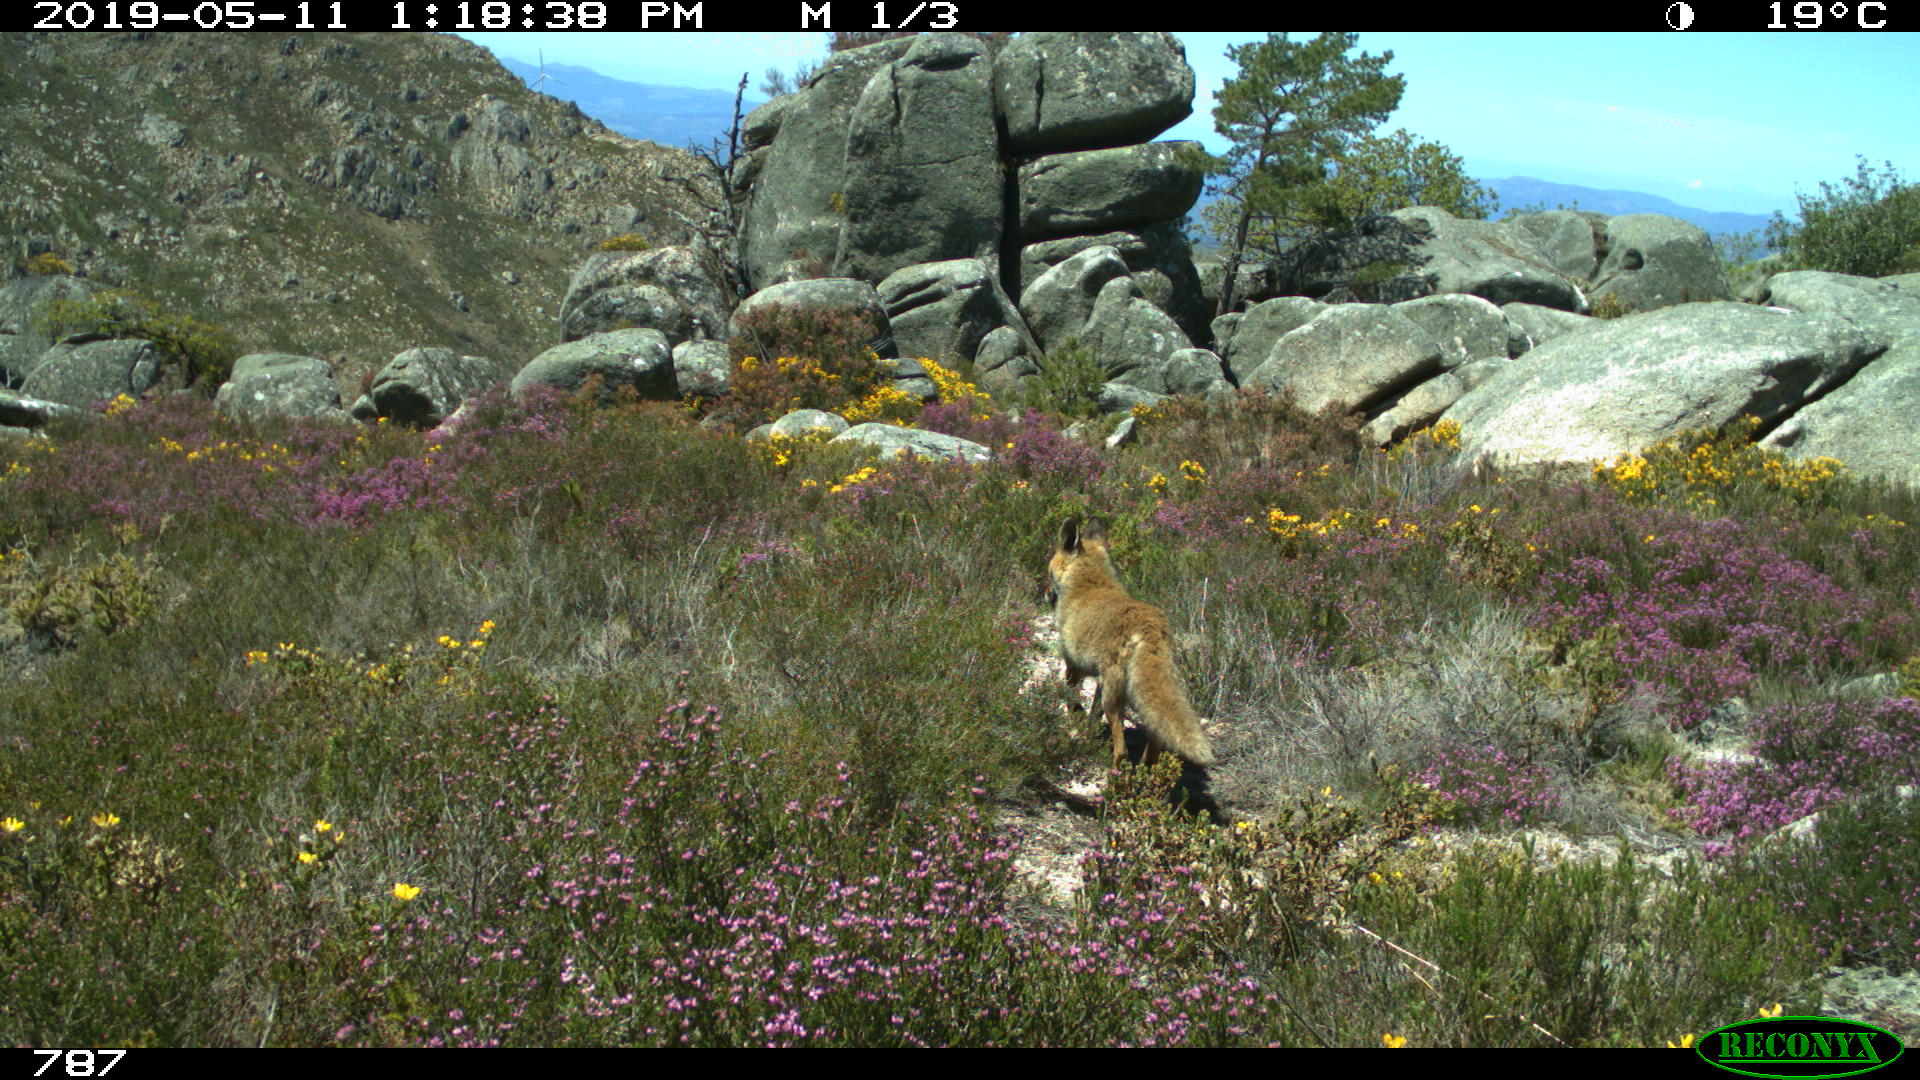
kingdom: Animalia
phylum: Chordata
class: Mammalia
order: Carnivora
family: Canidae
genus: Vulpes
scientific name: Vulpes vulpes
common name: Red fox
